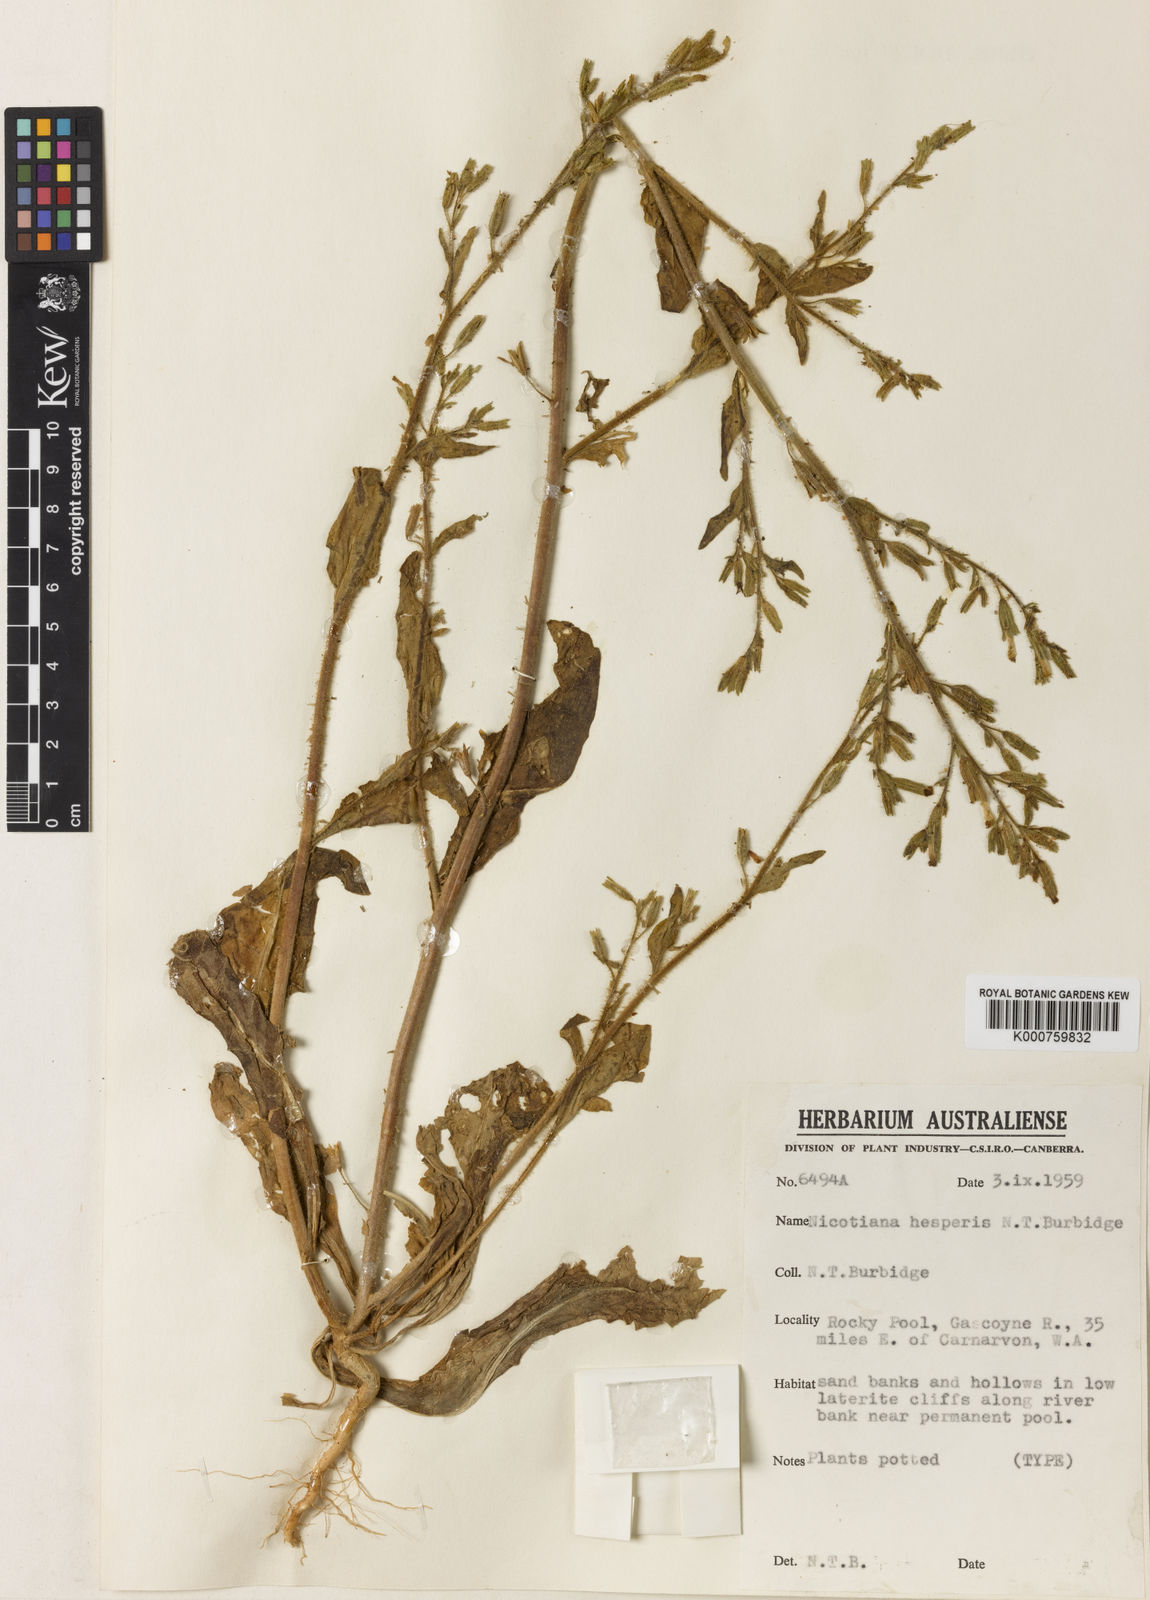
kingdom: Plantae
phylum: Tracheophyta
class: Magnoliopsida
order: Solanales
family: Solanaceae
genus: Nicotiana
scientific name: Nicotiana hesperis
